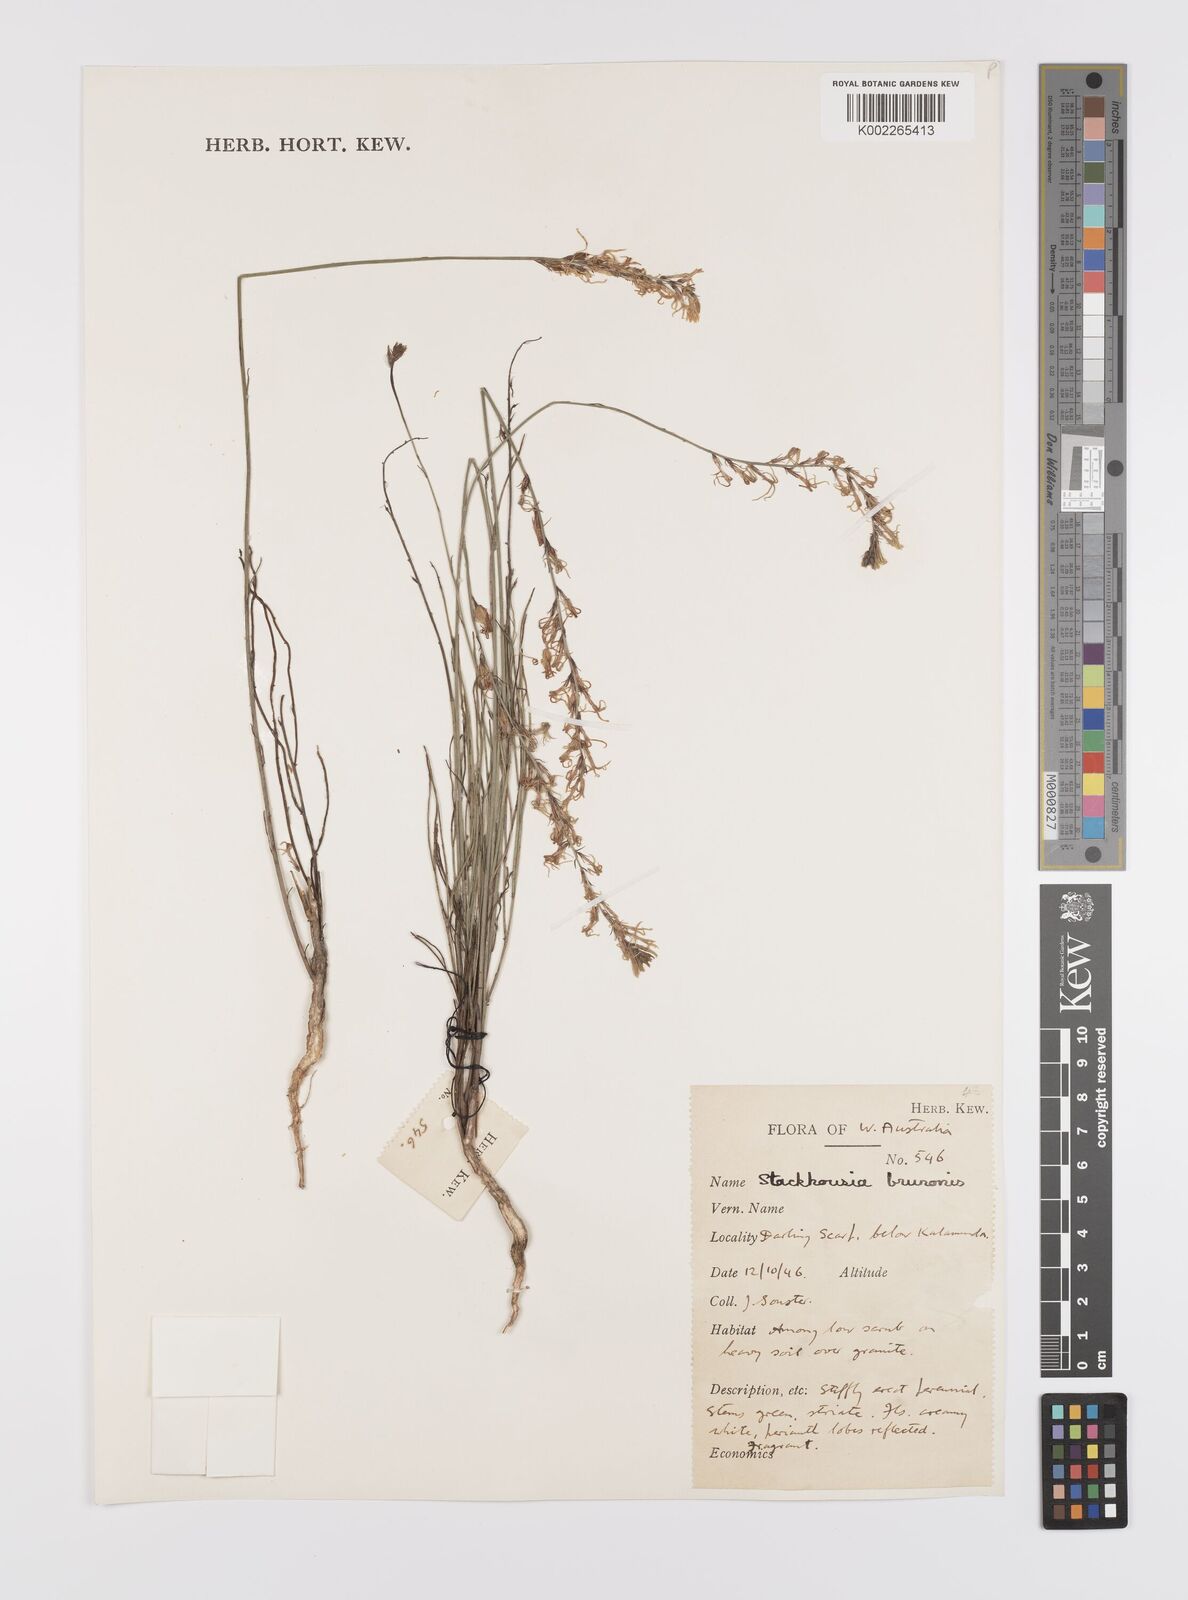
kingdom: Plantae
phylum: Tracheophyta
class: Magnoliopsida
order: Celastrales
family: Celastraceae
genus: Tripterococcus
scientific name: Tripterococcus brunonis
